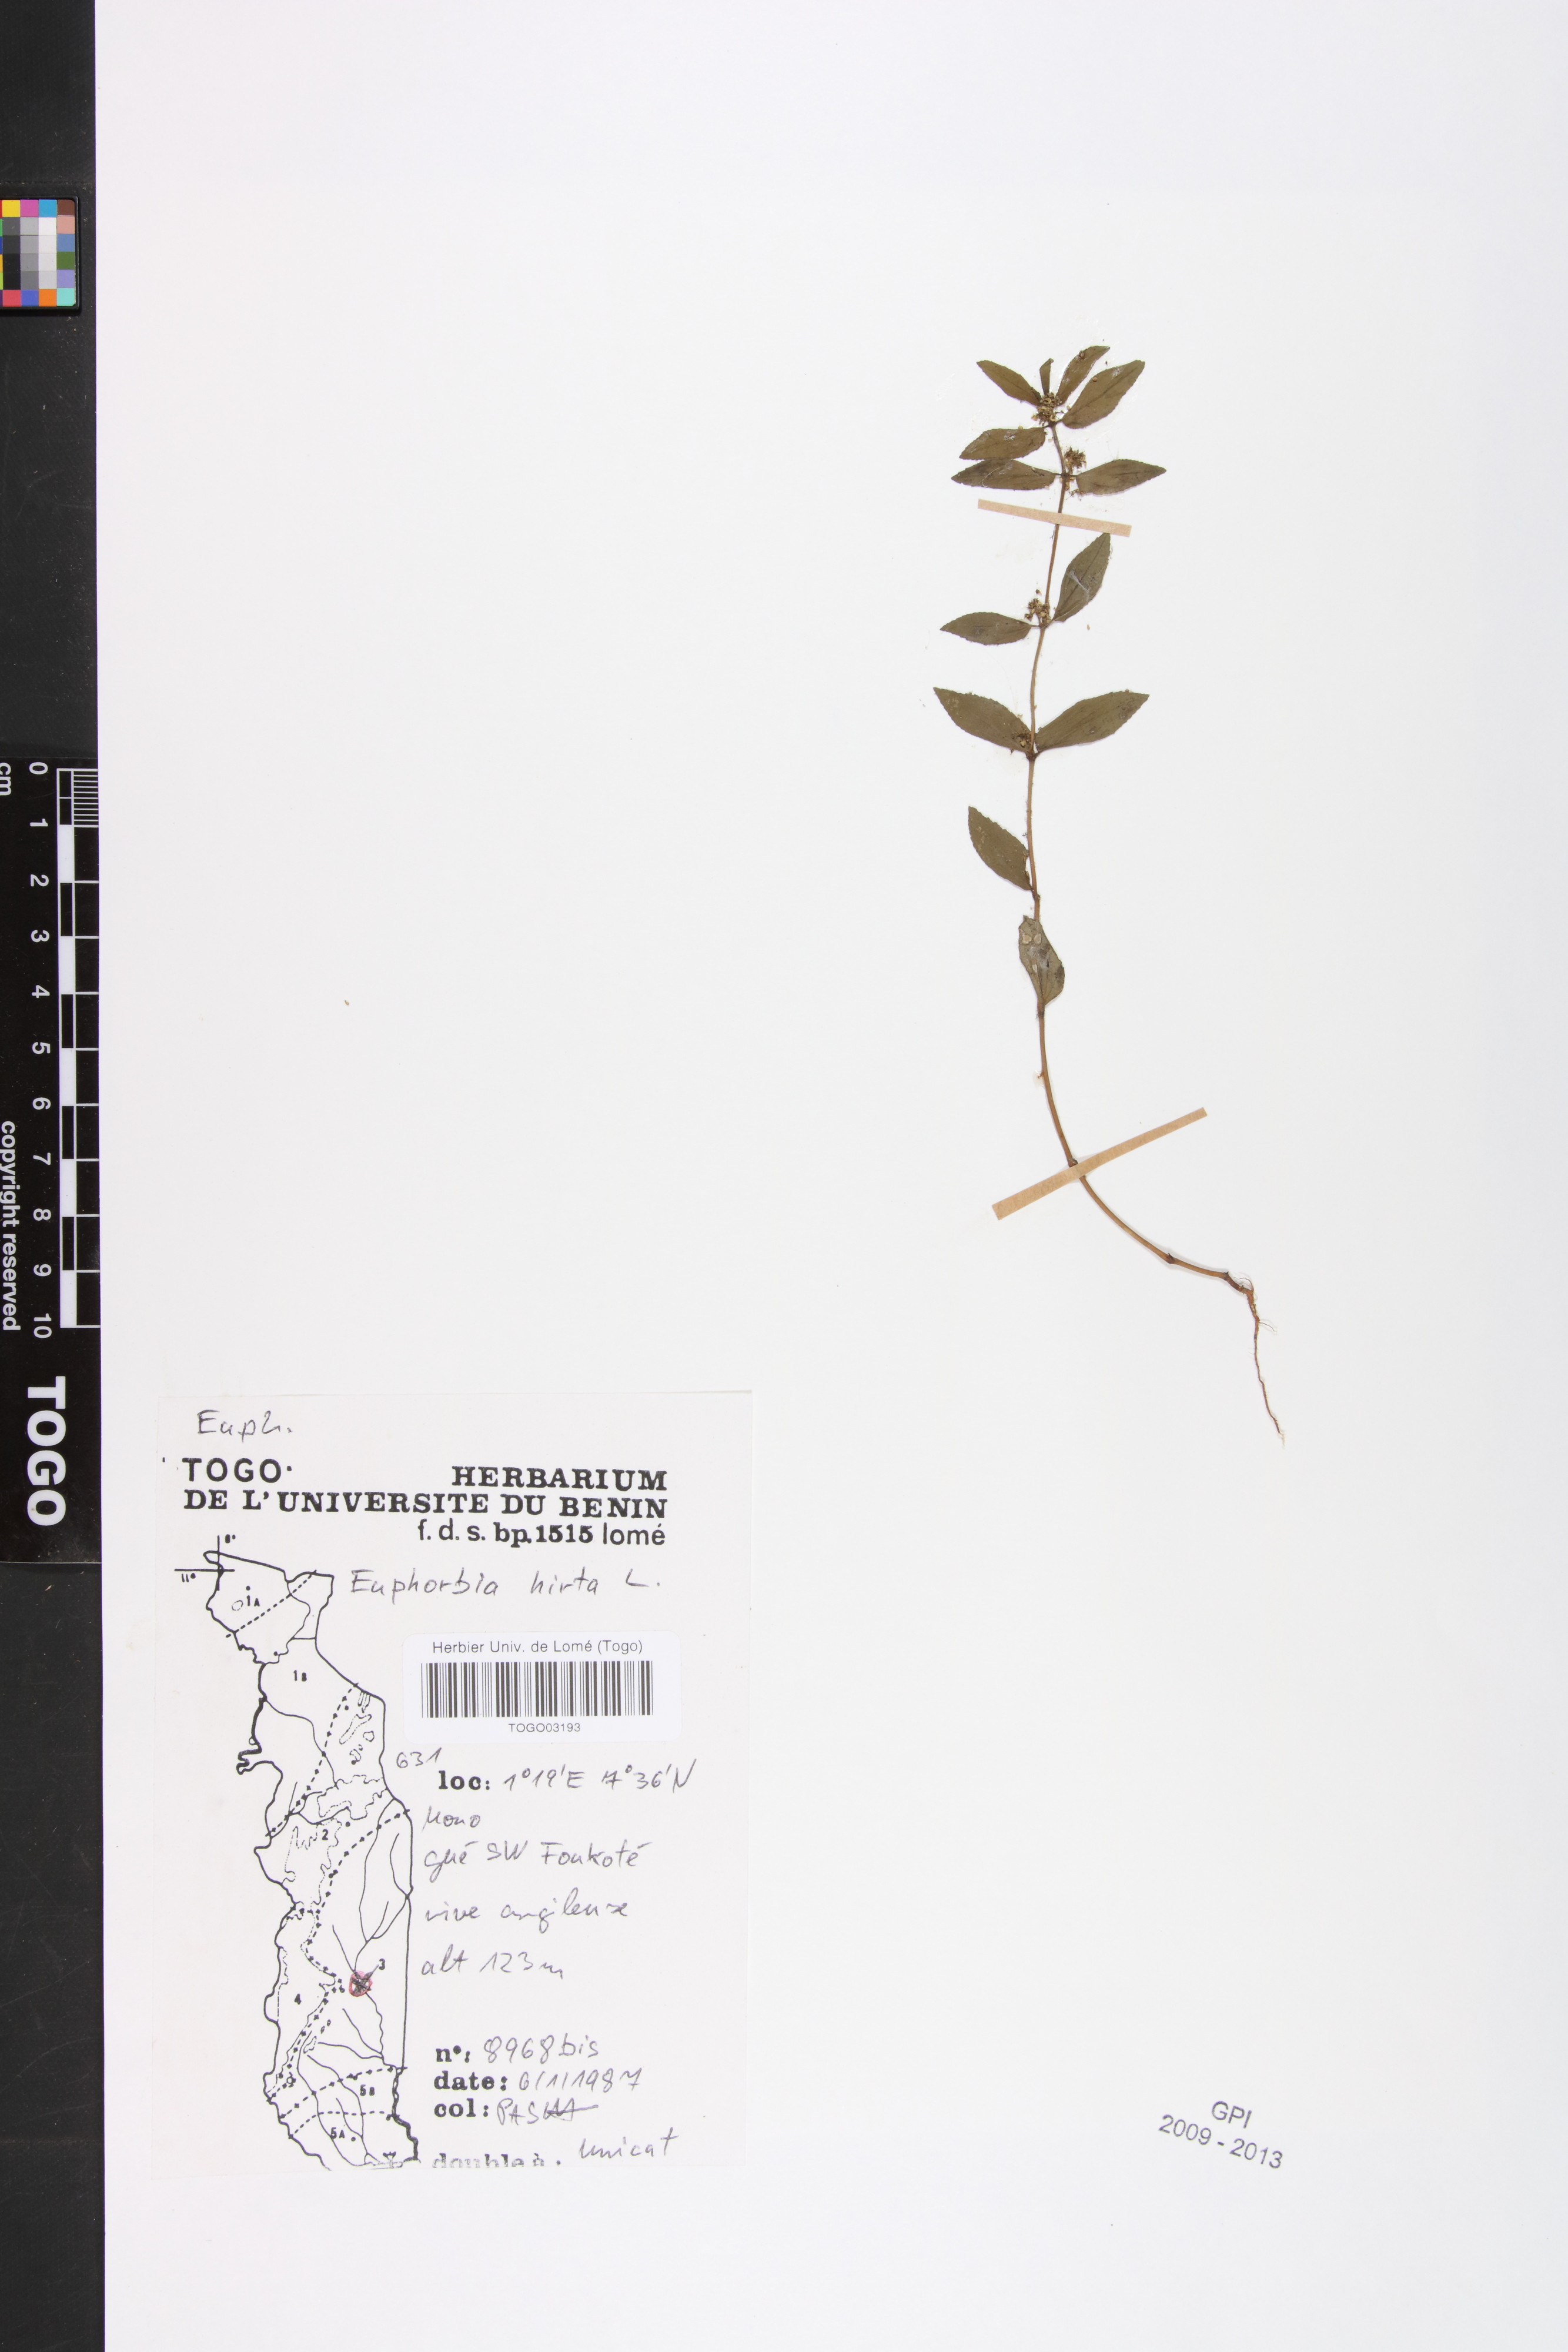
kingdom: Plantae
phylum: Tracheophyta
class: Magnoliopsida
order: Malpighiales
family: Euphorbiaceae
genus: Euphorbia
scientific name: Euphorbia hirta
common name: Pillpod sandmat
